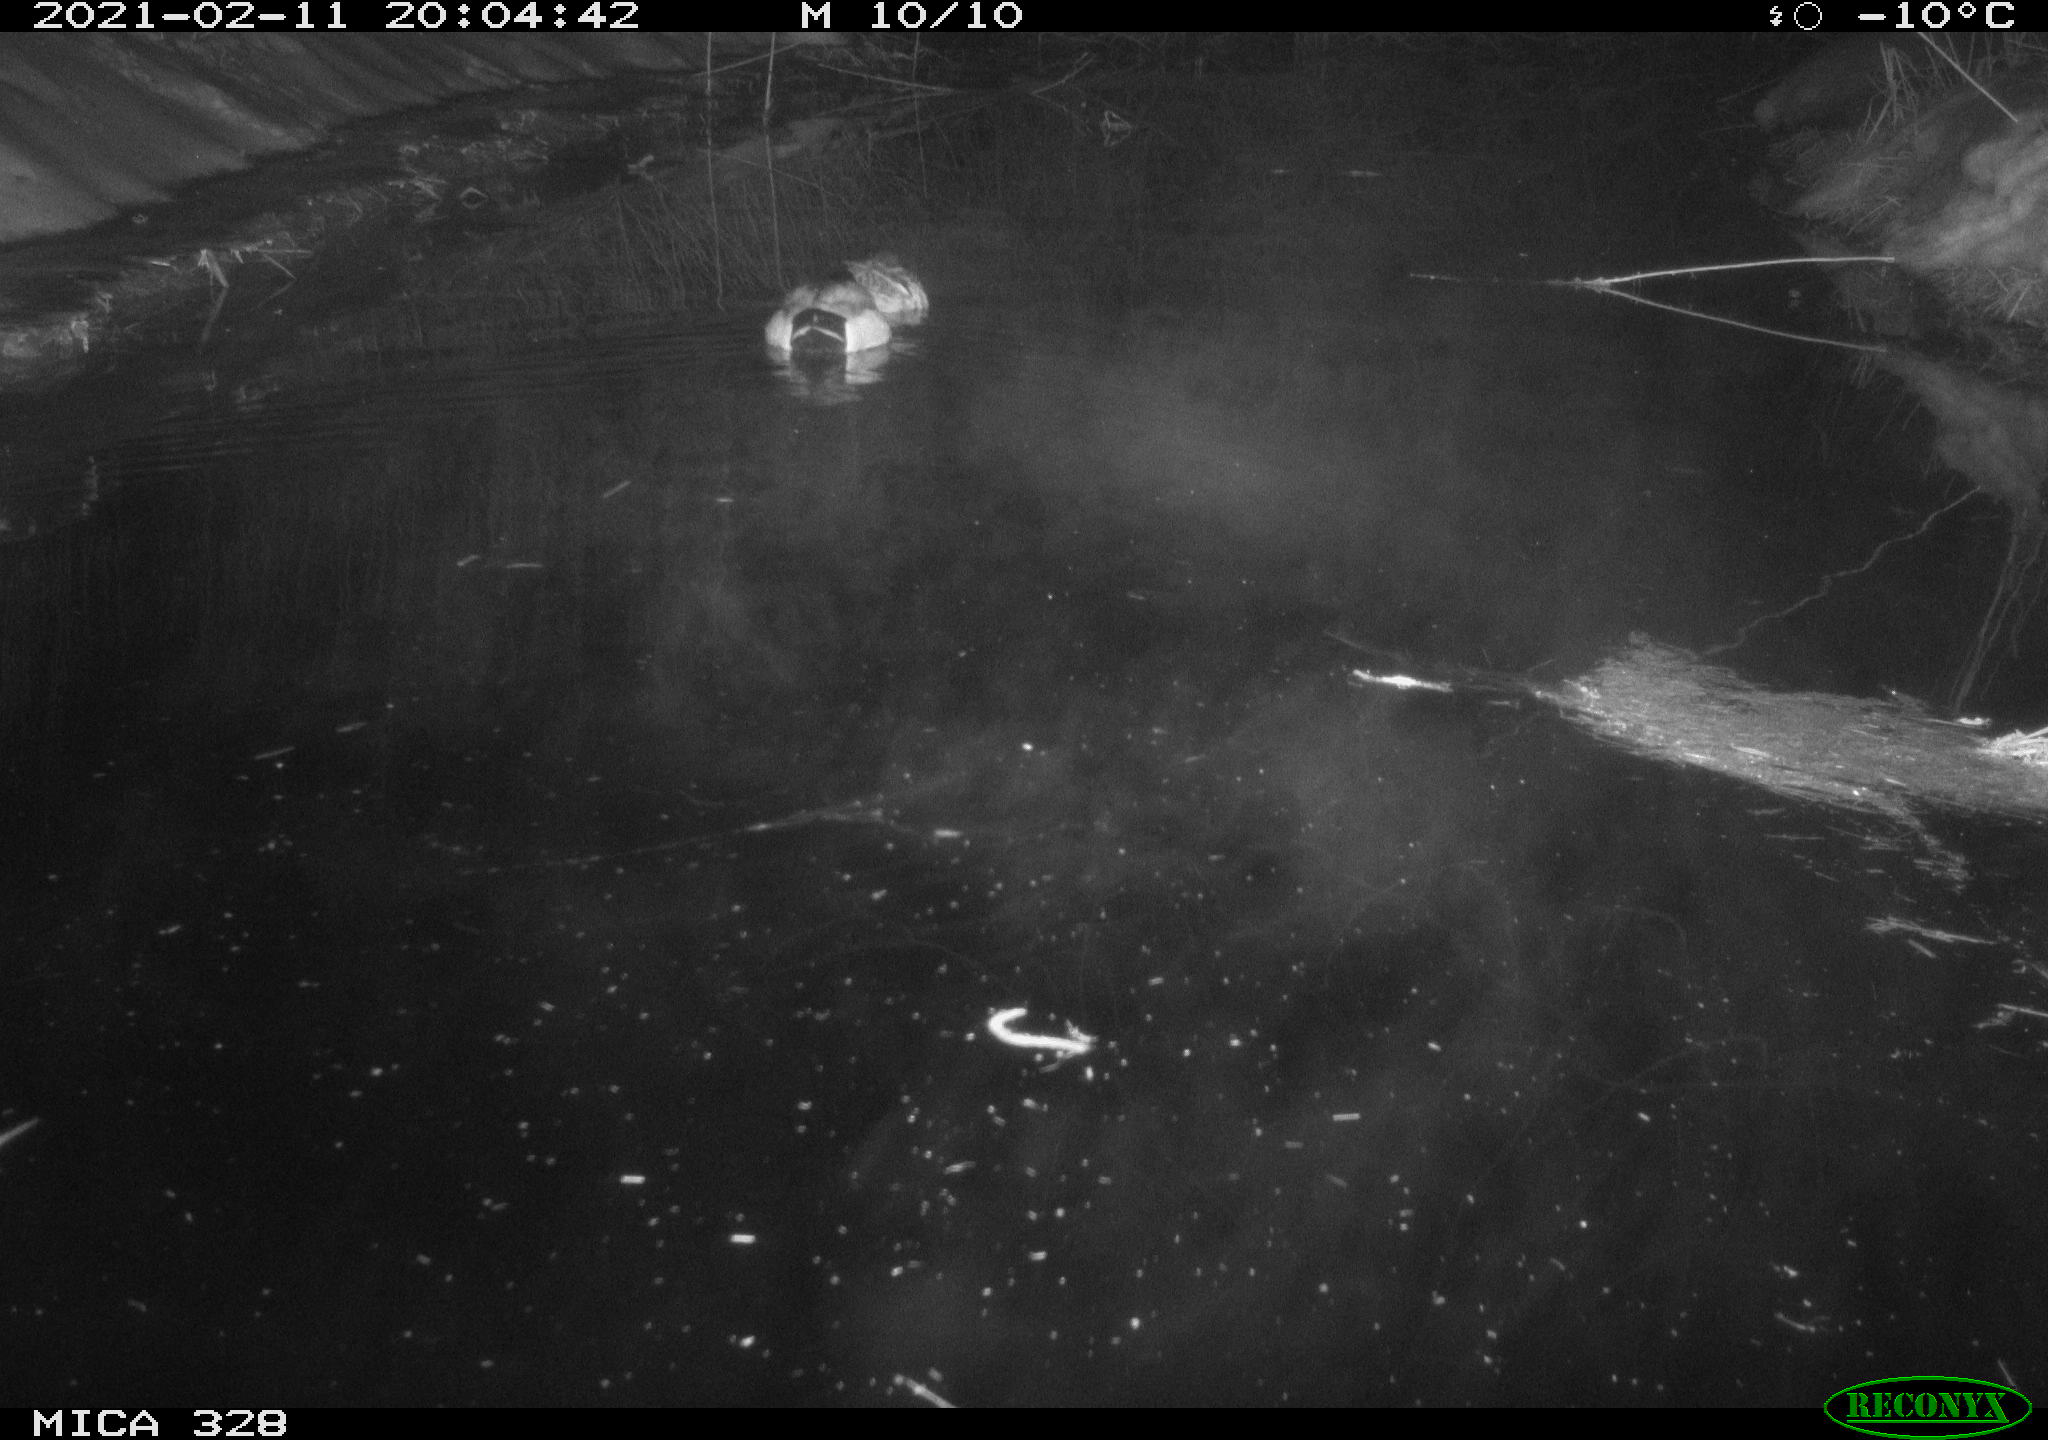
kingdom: Animalia
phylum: Chordata
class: Aves
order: Anseriformes
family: Anatidae
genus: Anas
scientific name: Anas platyrhynchos
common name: Mallard
